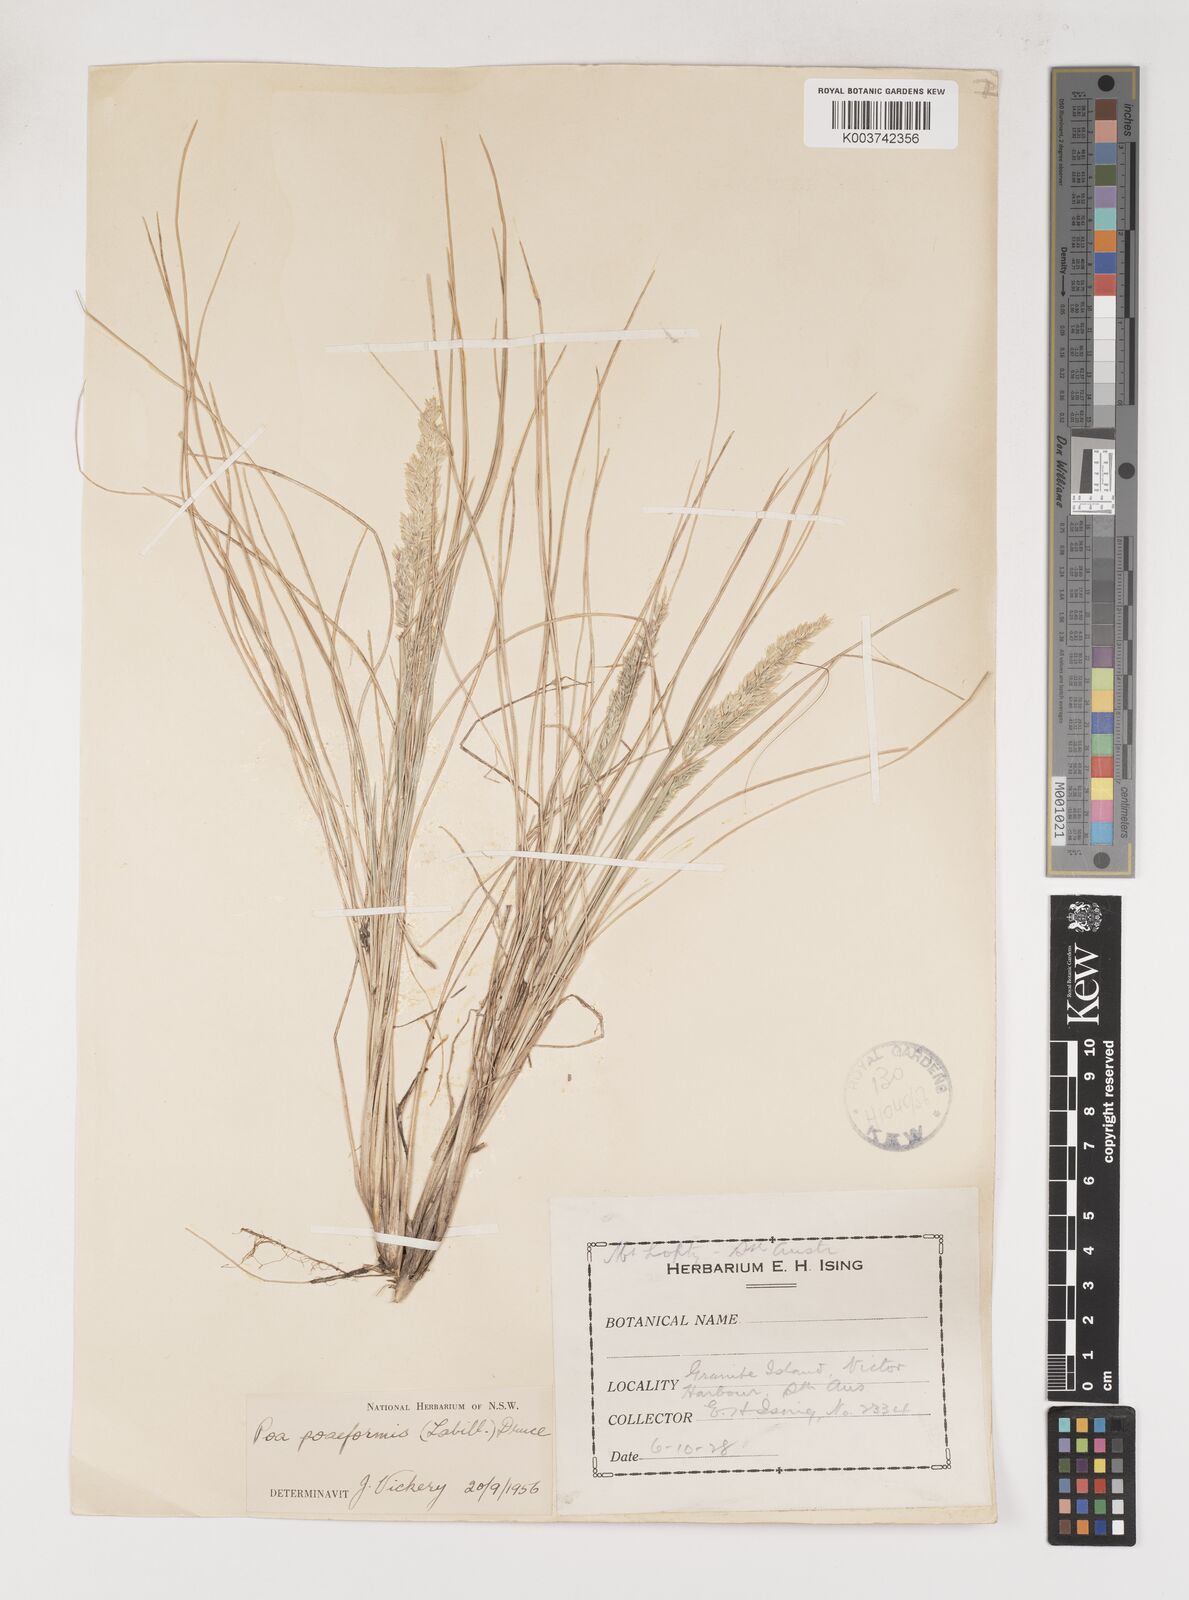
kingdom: Plantae
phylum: Tracheophyta
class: Liliopsida
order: Poales
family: Poaceae
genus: Poa
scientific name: Poa poiformis
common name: Tussock poa
